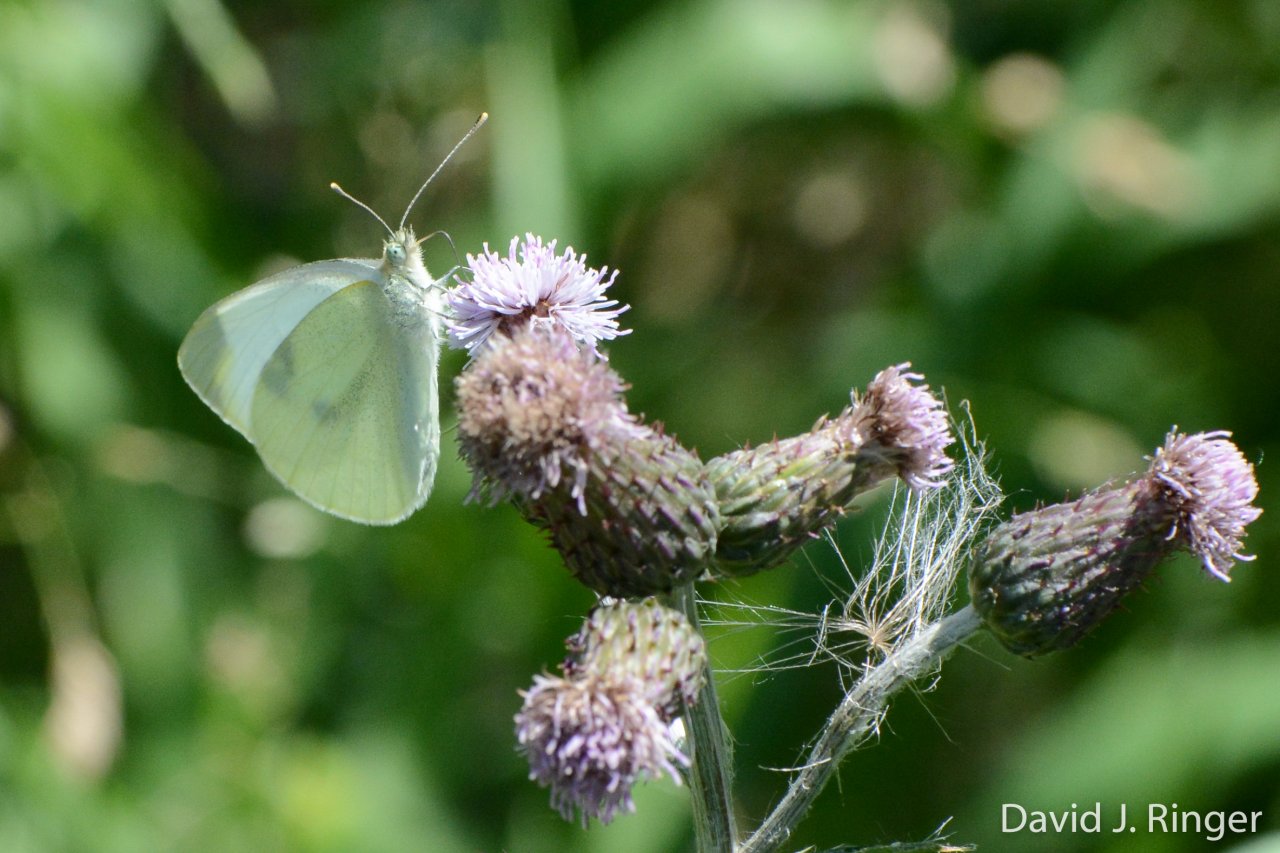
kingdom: Animalia
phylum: Arthropoda
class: Insecta
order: Lepidoptera
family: Pieridae
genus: Pieris
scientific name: Pieris rapae
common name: Cabbage White
